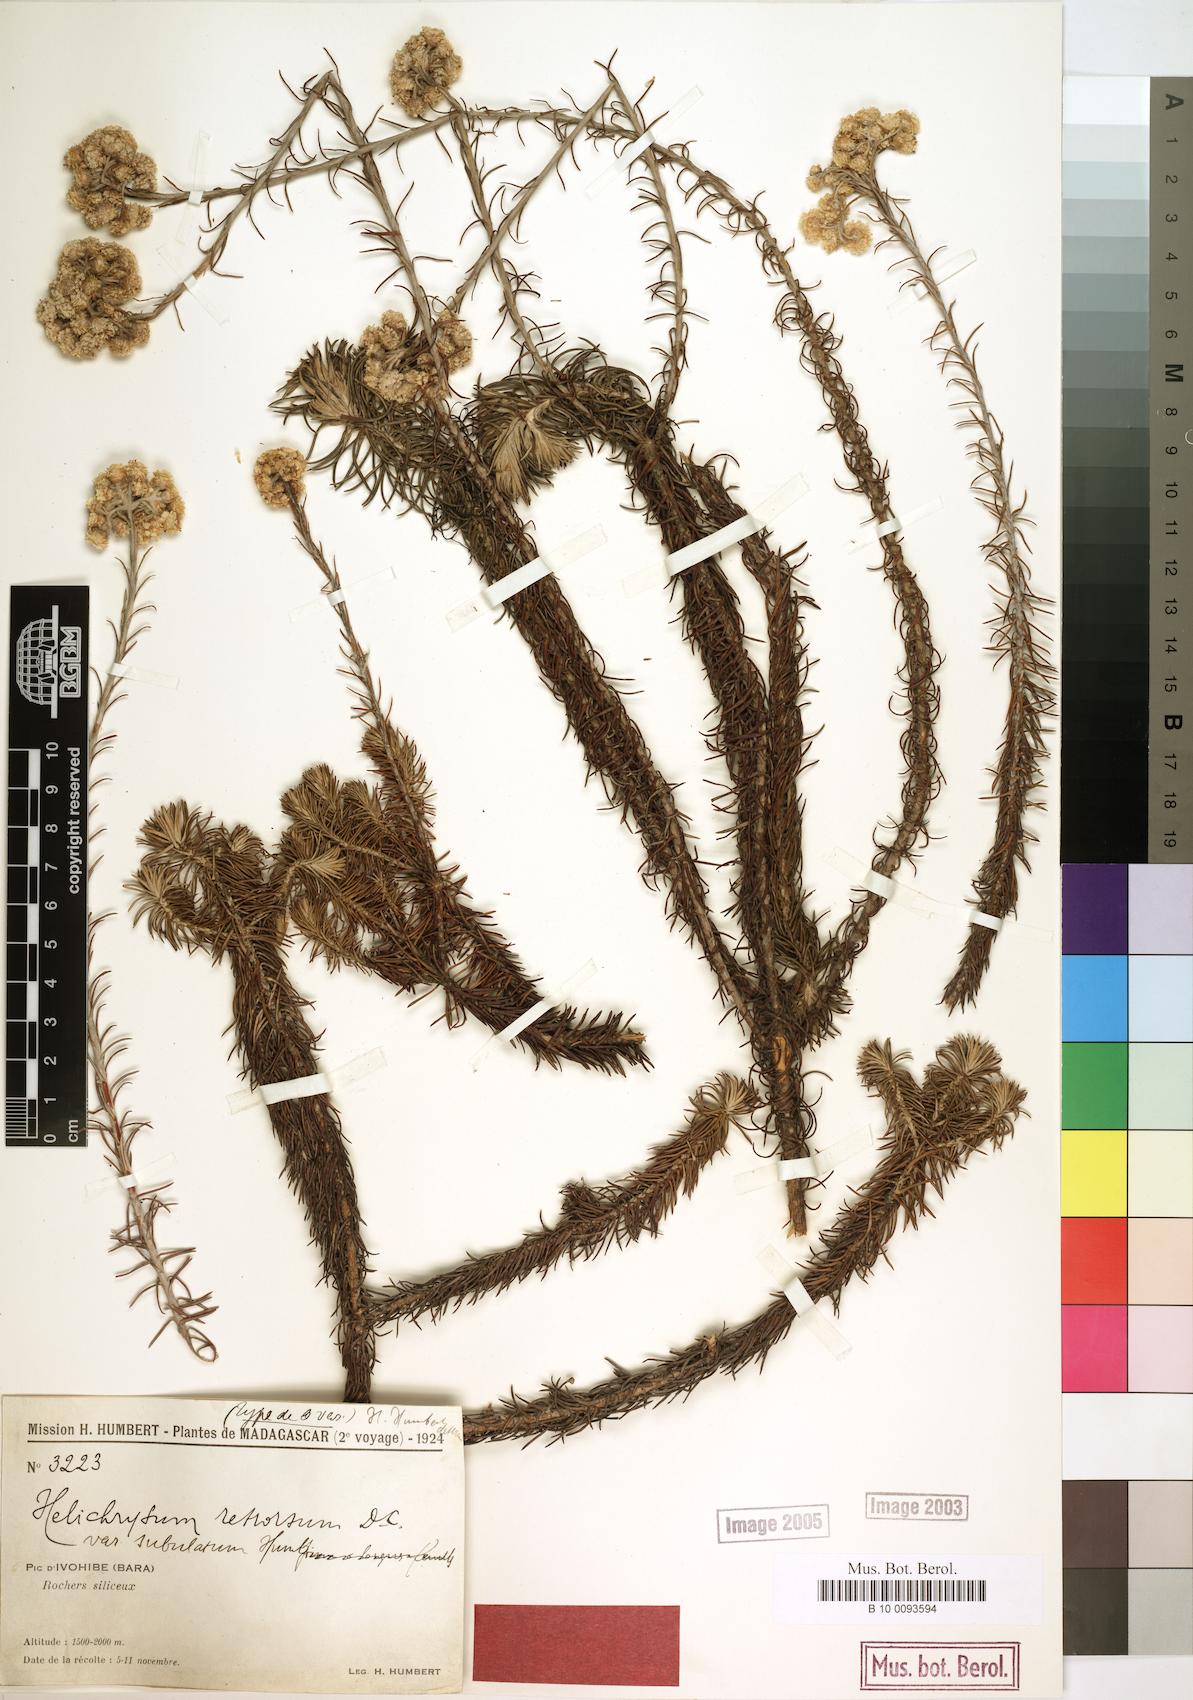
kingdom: Plantae
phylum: Tracheophyta
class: Magnoliopsida
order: Asterales
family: Asteraceae
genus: Helichrysum
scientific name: Helichrysum retrorsum
